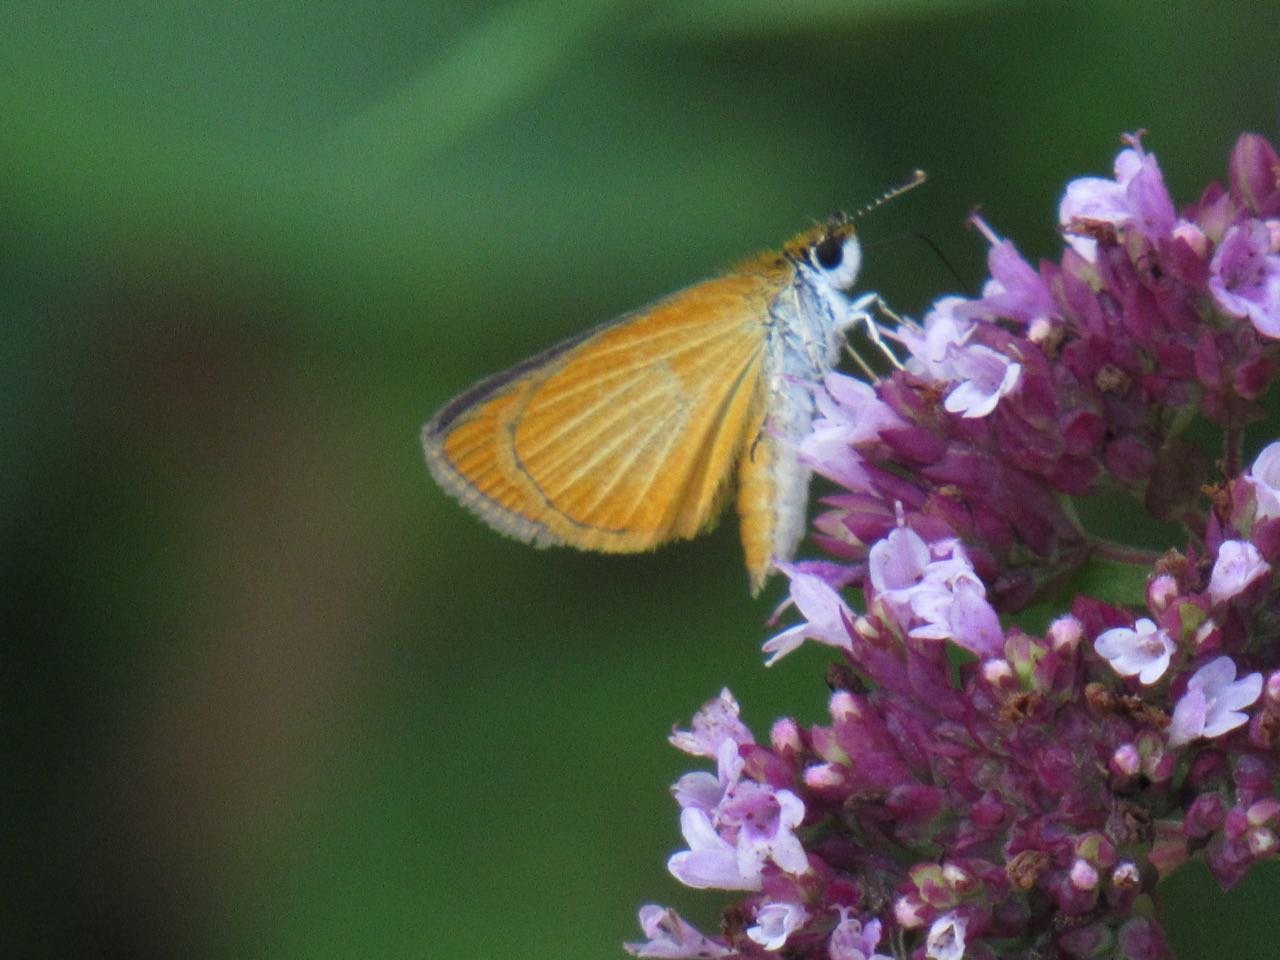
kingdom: Animalia
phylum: Arthropoda
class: Insecta
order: Lepidoptera
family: Hesperiidae
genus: Ancyloxypha
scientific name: Ancyloxypha numitor
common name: Least Skipper
